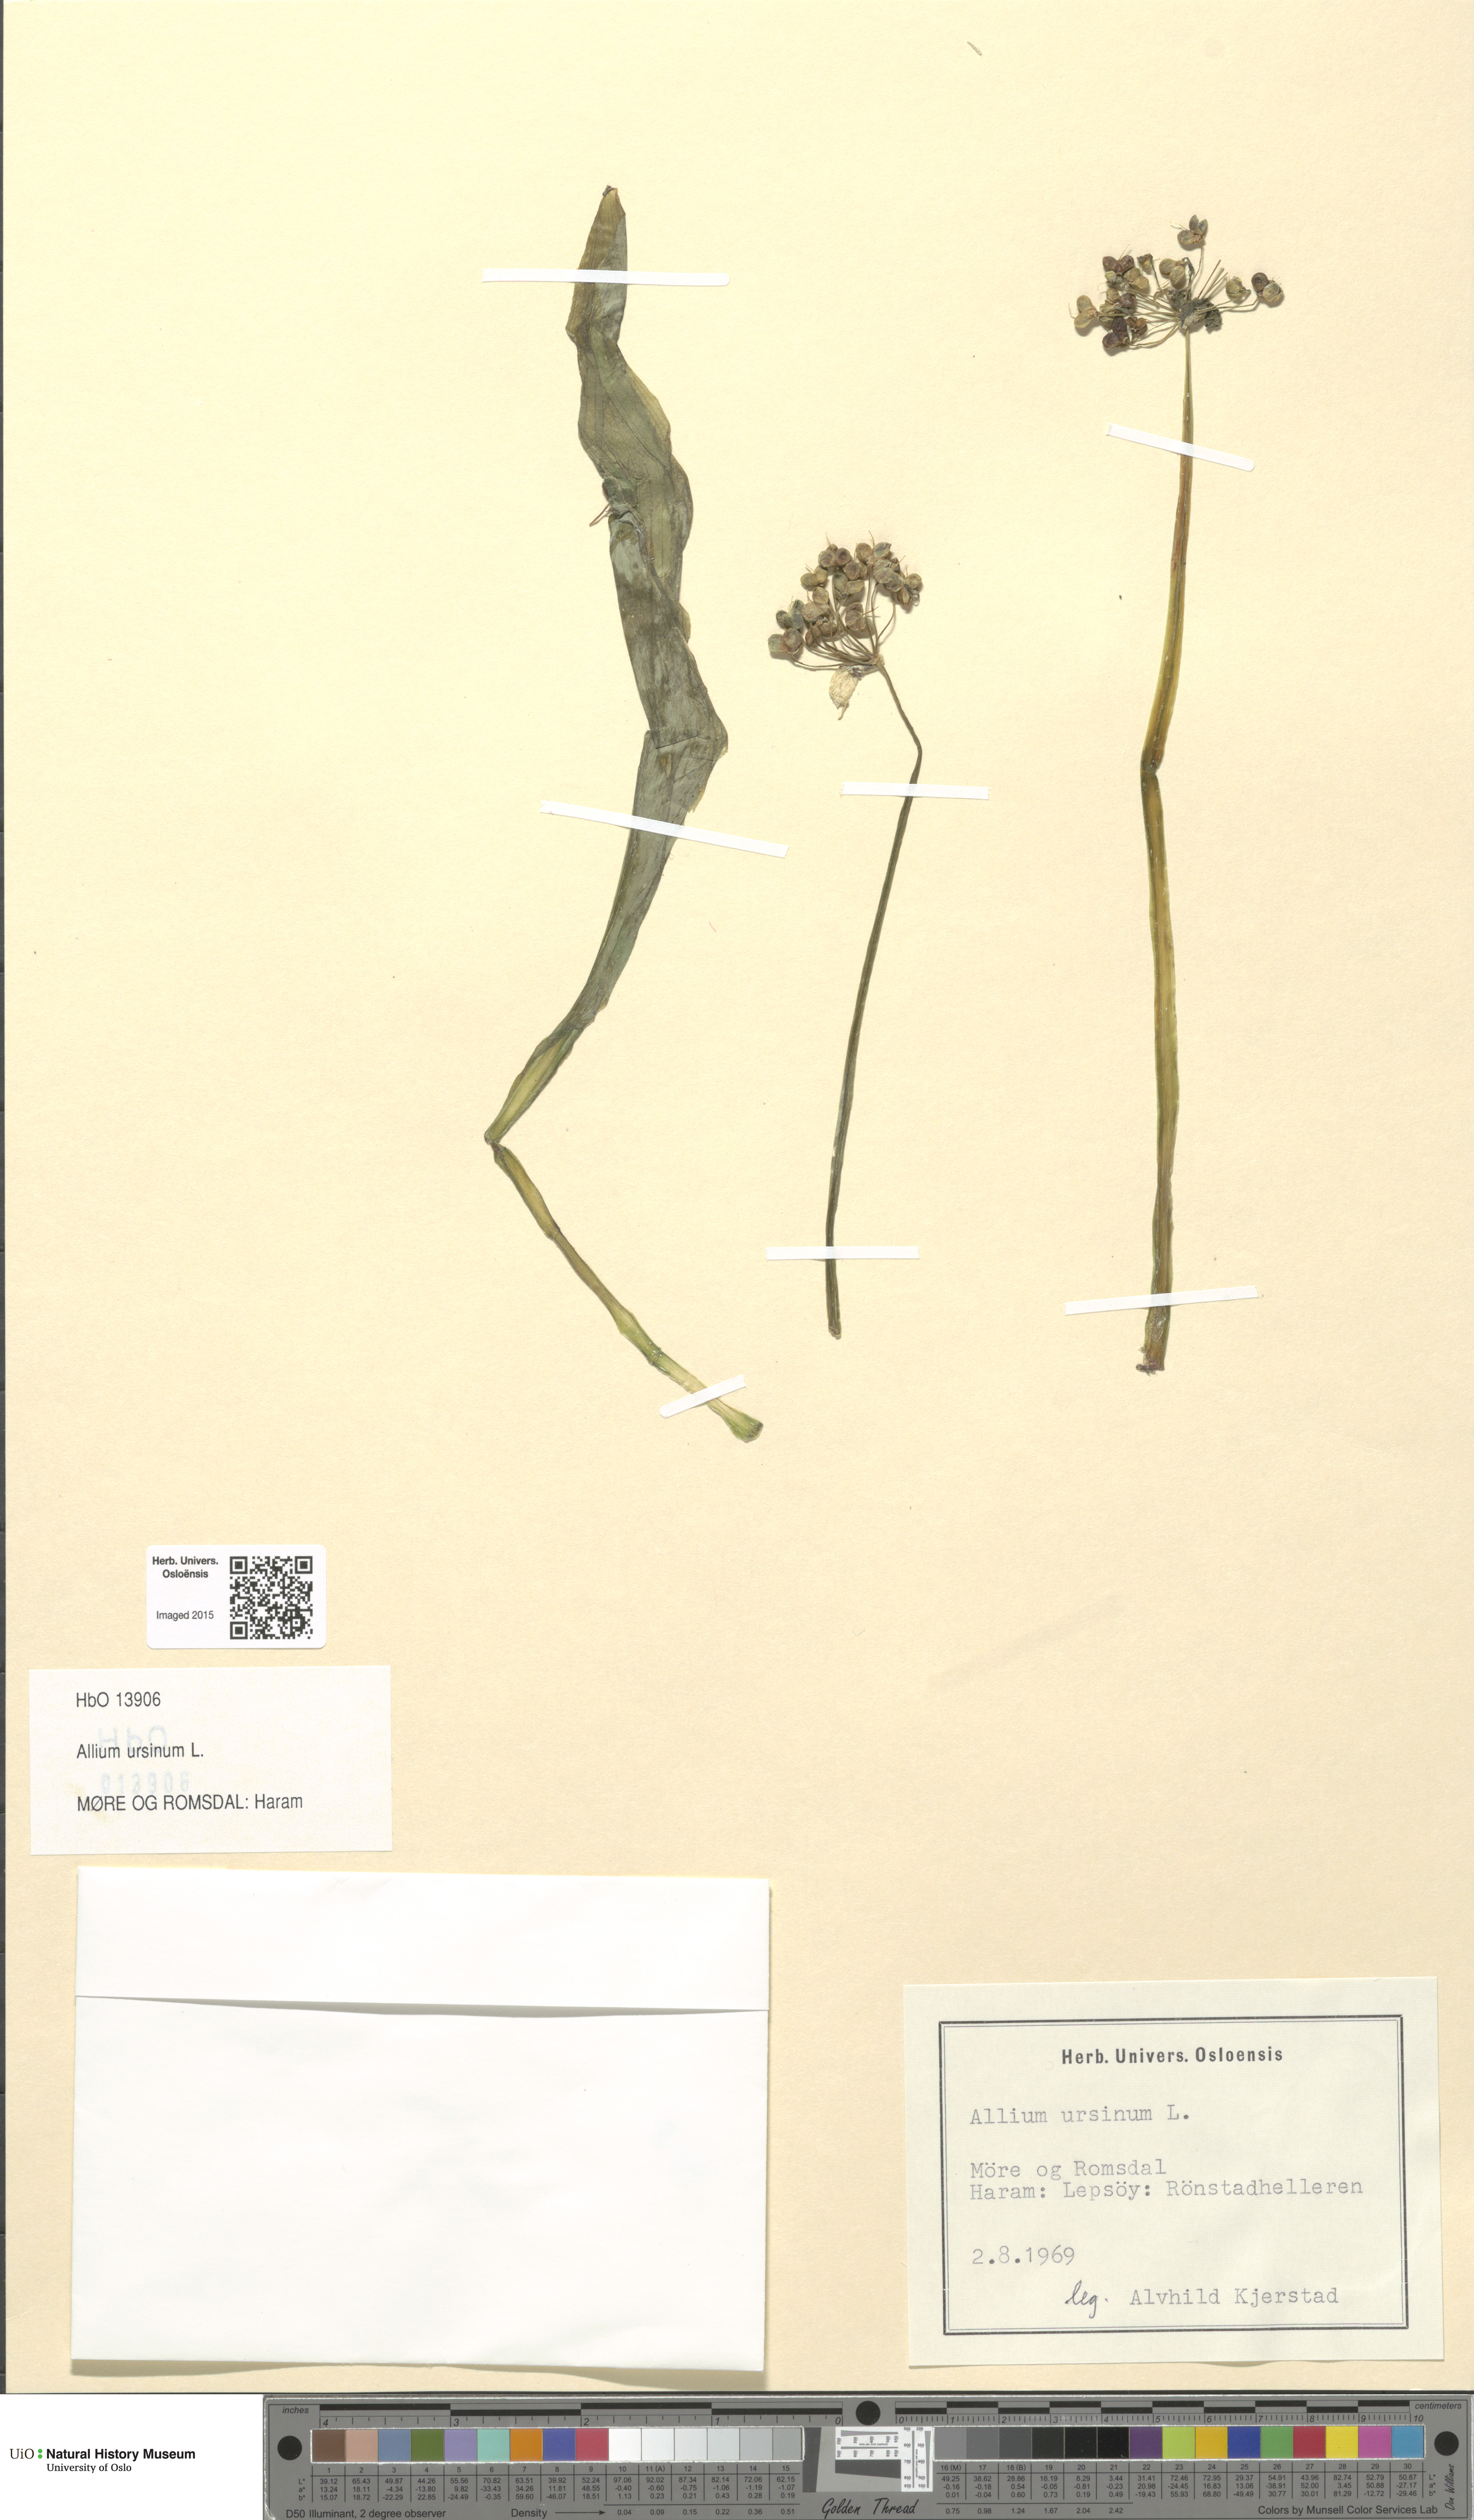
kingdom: Plantae
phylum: Tracheophyta
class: Liliopsida
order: Asparagales
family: Amaryllidaceae
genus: Allium
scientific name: Allium ursinum
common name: Ramsons
